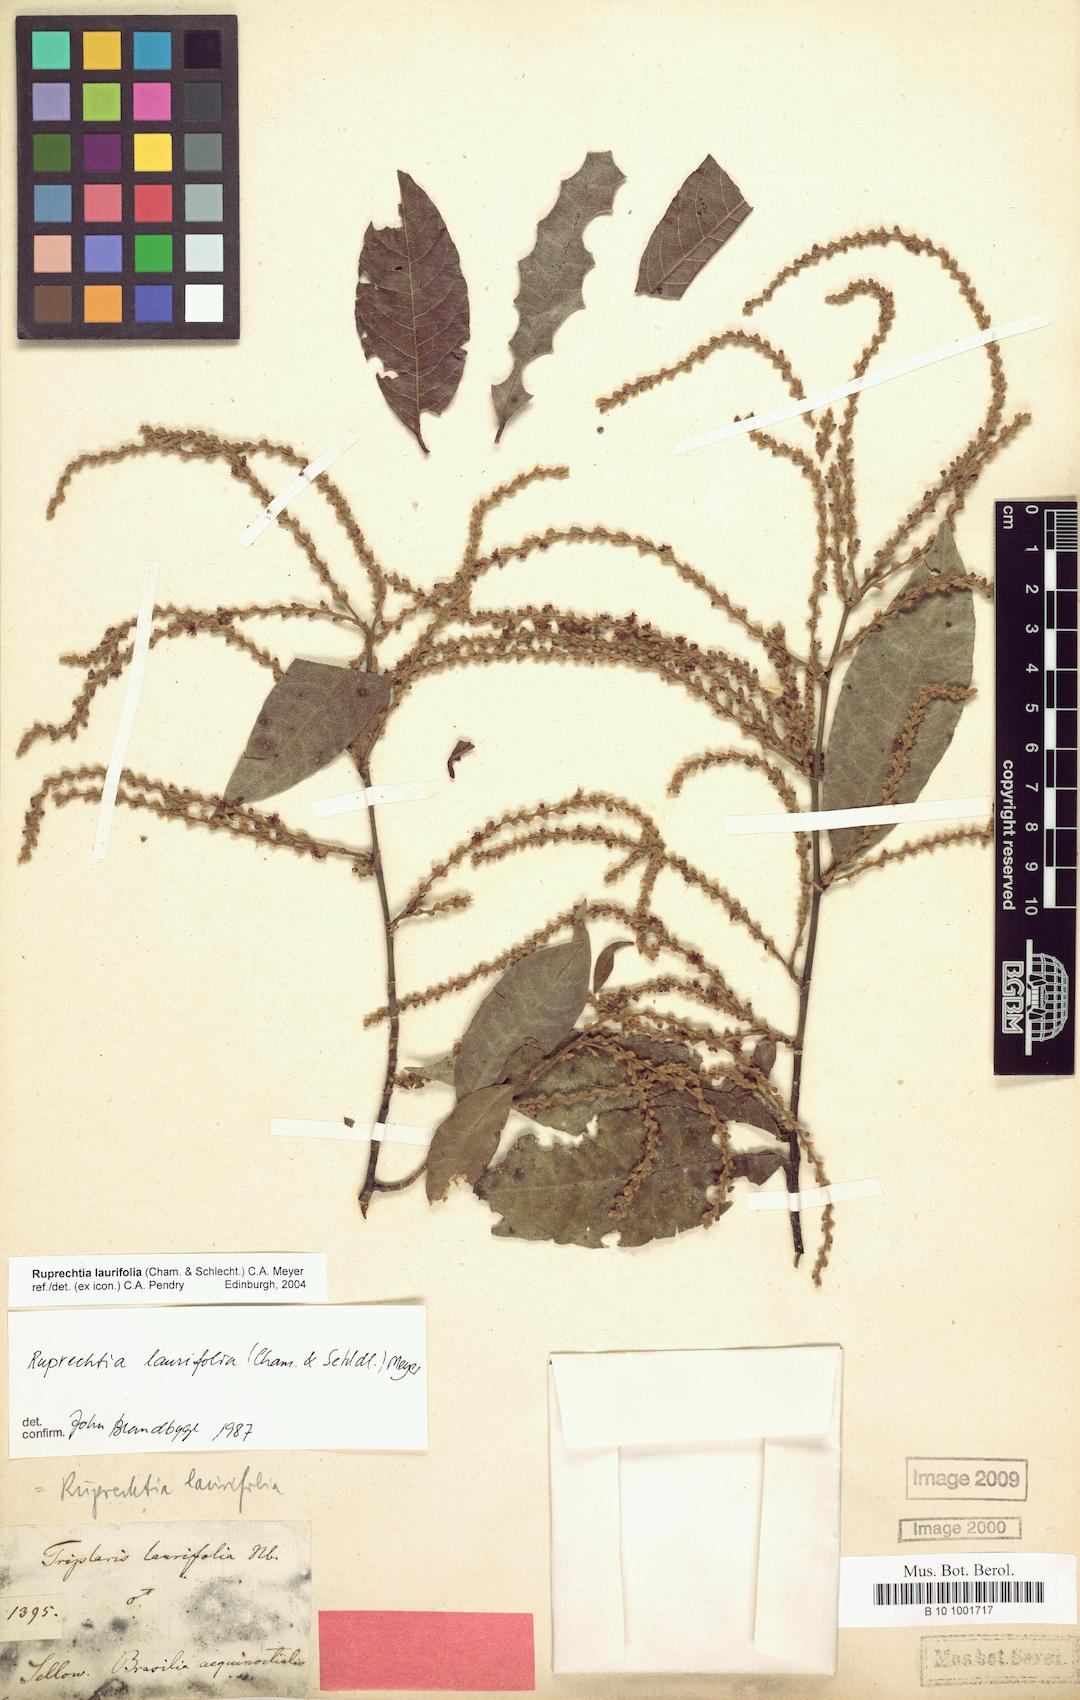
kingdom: Plantae
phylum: Tracheophyta
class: Magnoliopsida
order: Caryophyllales
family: Polygonaceae
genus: Magoniella
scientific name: Magoniella obidensis
